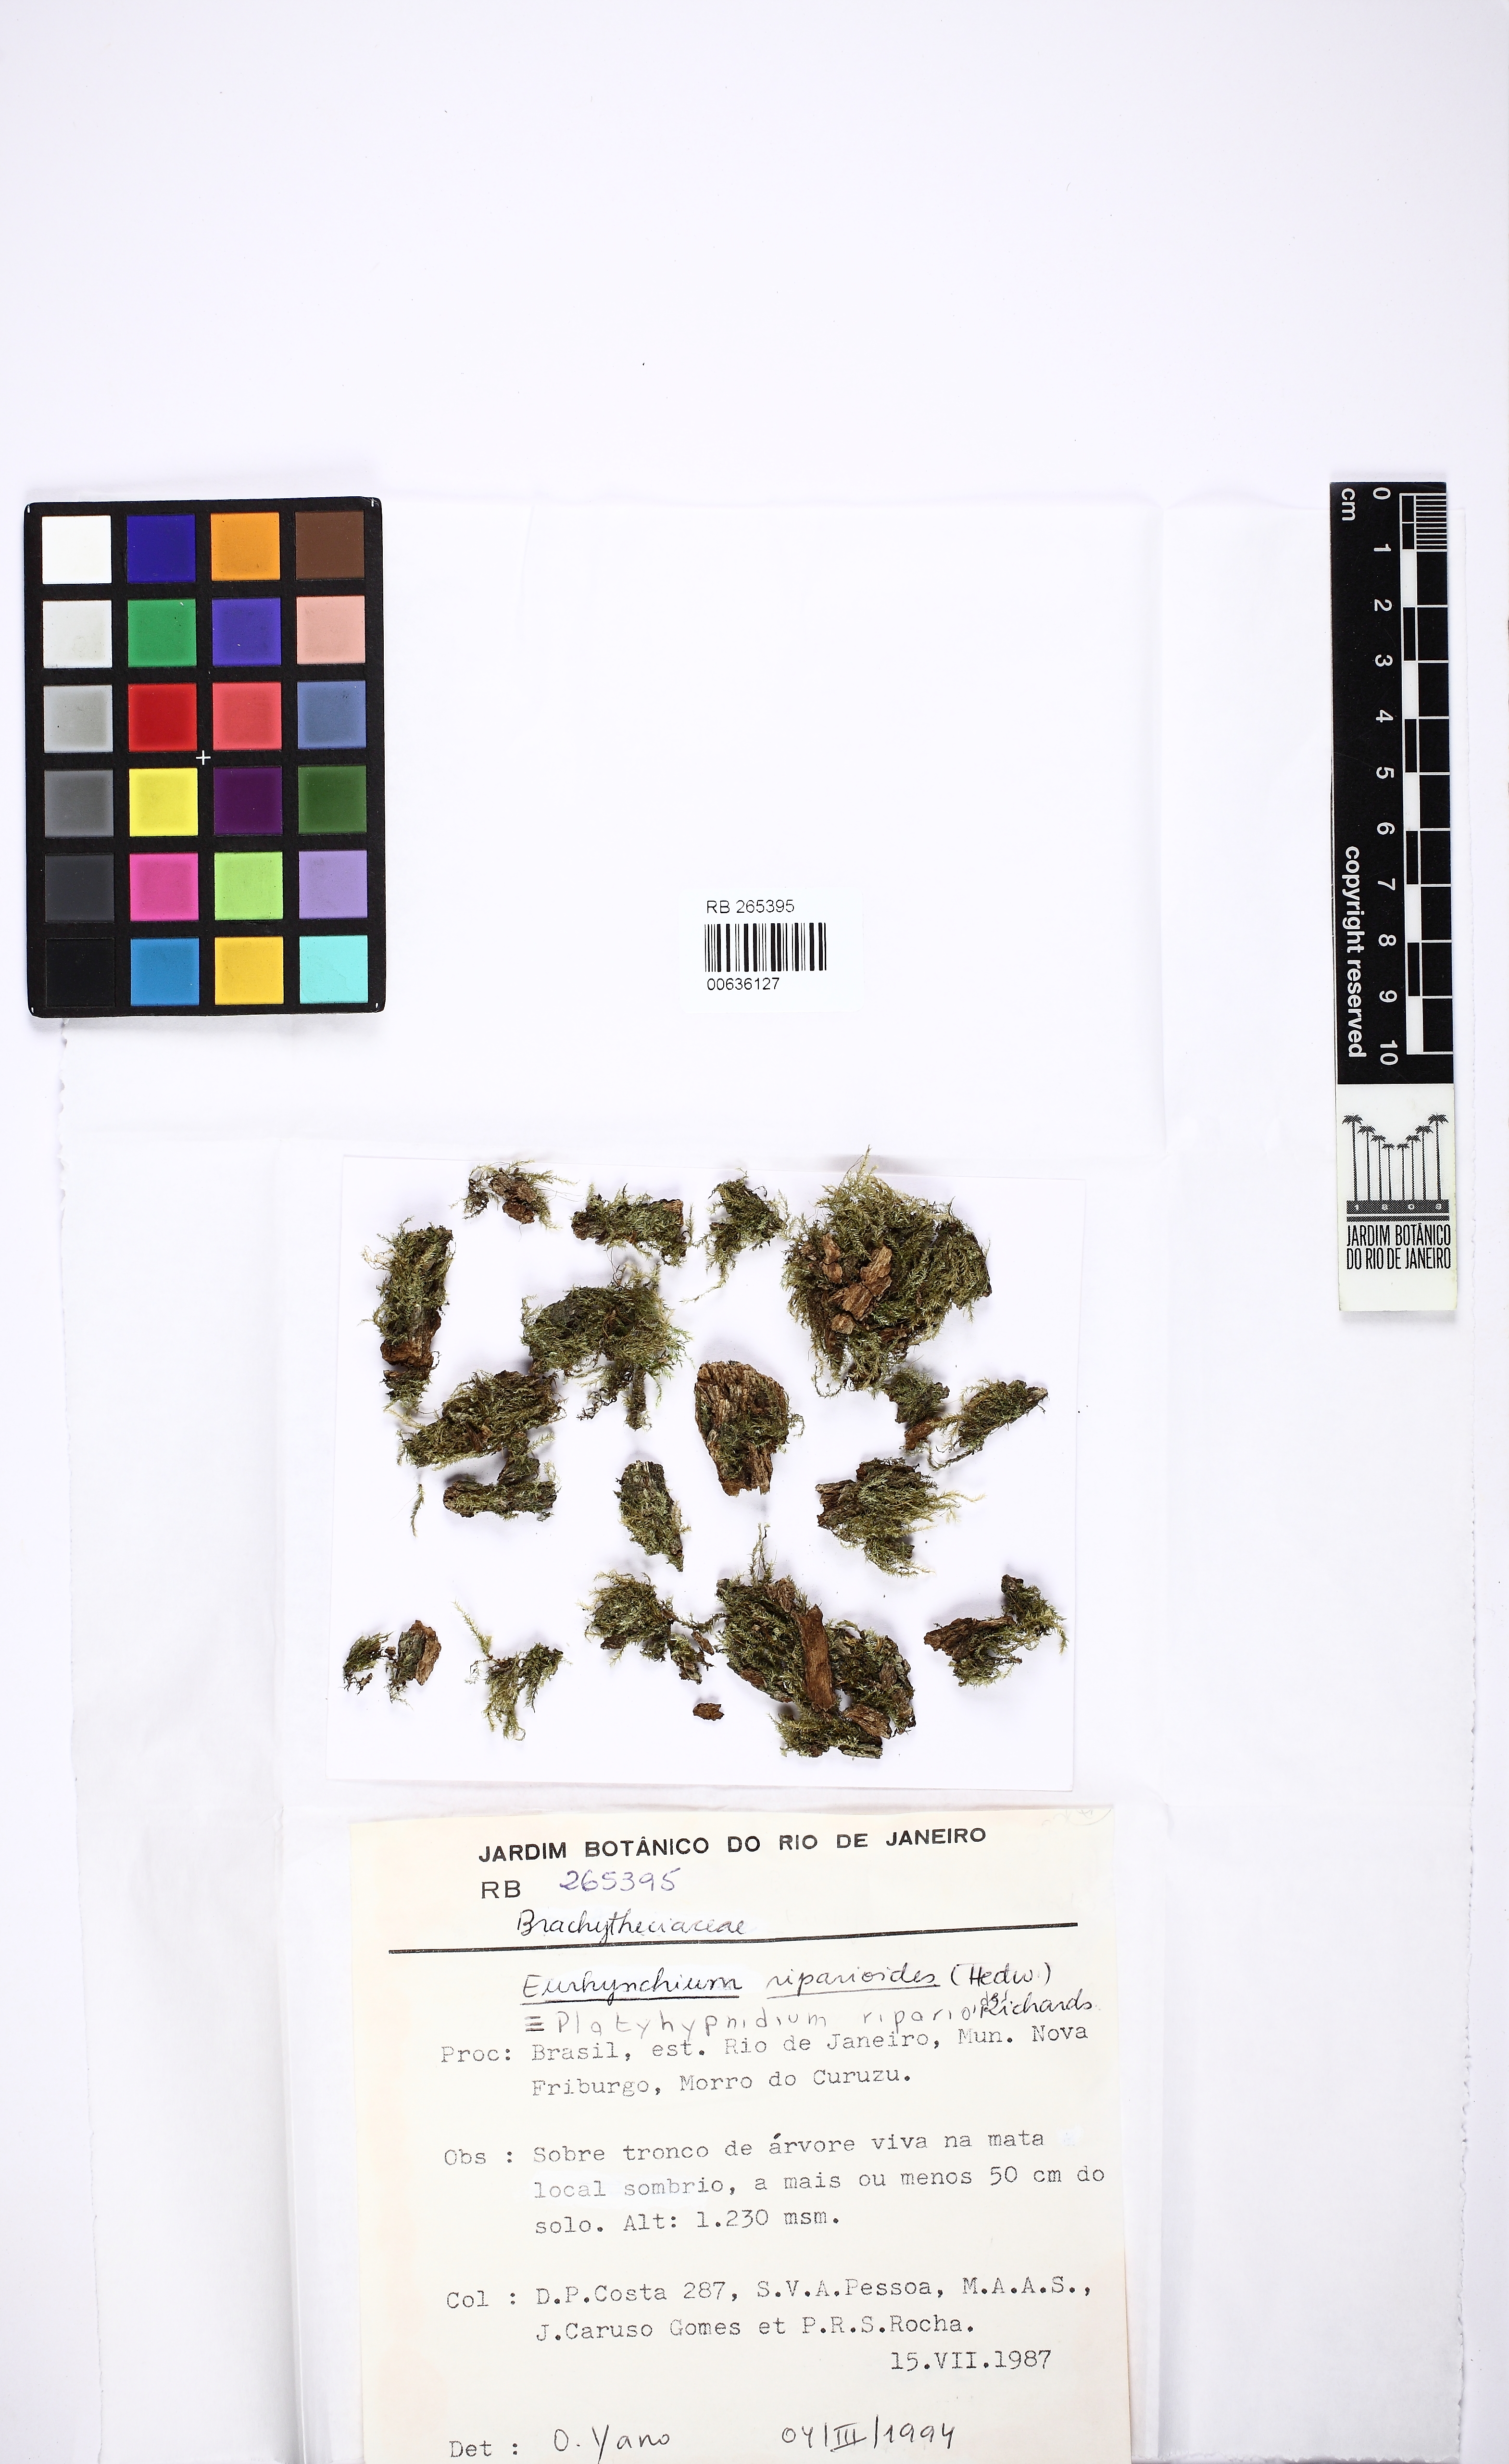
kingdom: Plantae
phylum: Bryophyta
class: Bryopsida
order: Hypnales
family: Brachytheciaceae
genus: Rhynchostegium
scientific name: Rhynchostegium riparioides
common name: Platyhypnidium moss
